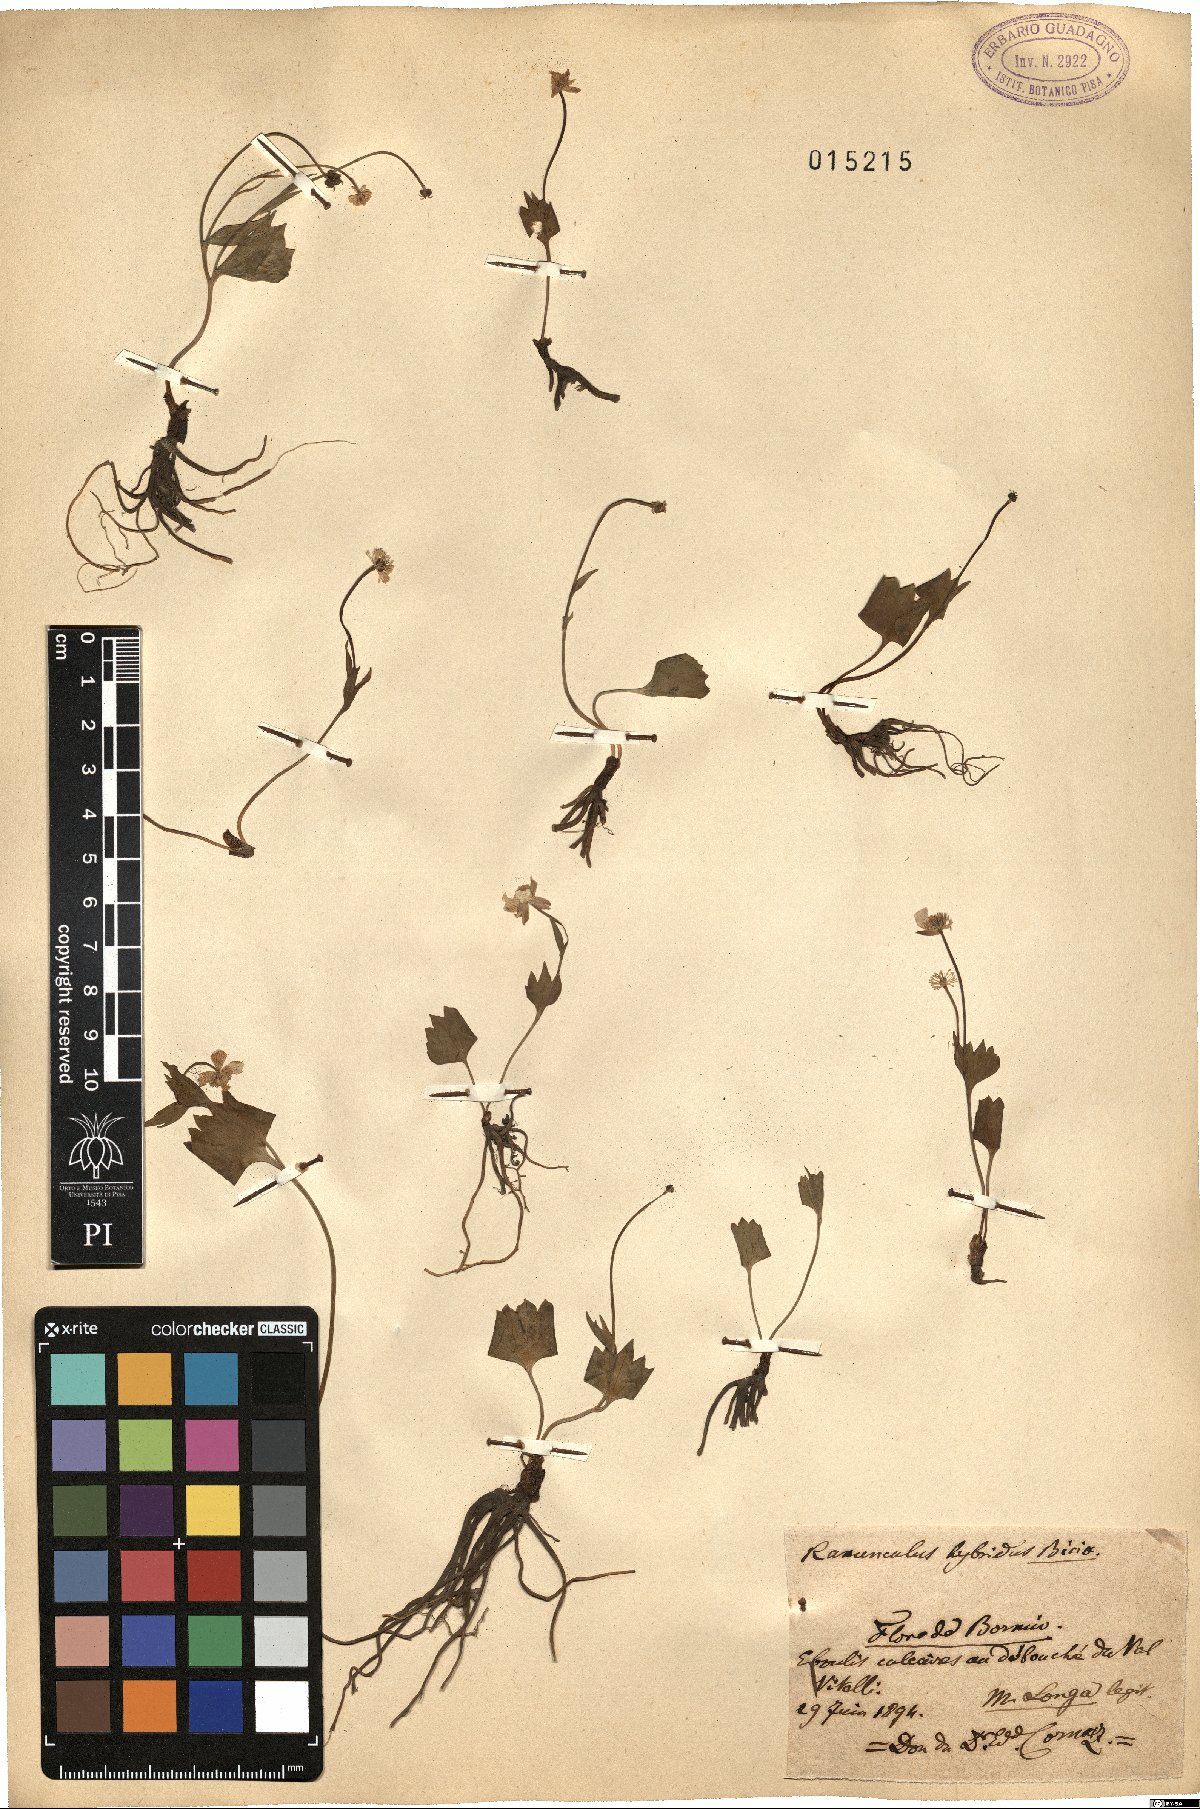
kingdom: Plantae
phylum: Tracheophyta
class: Magnoliopsida
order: Ranunculales
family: Ranunculaceae
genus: Ranunculus
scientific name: Ranunculus hybridus
